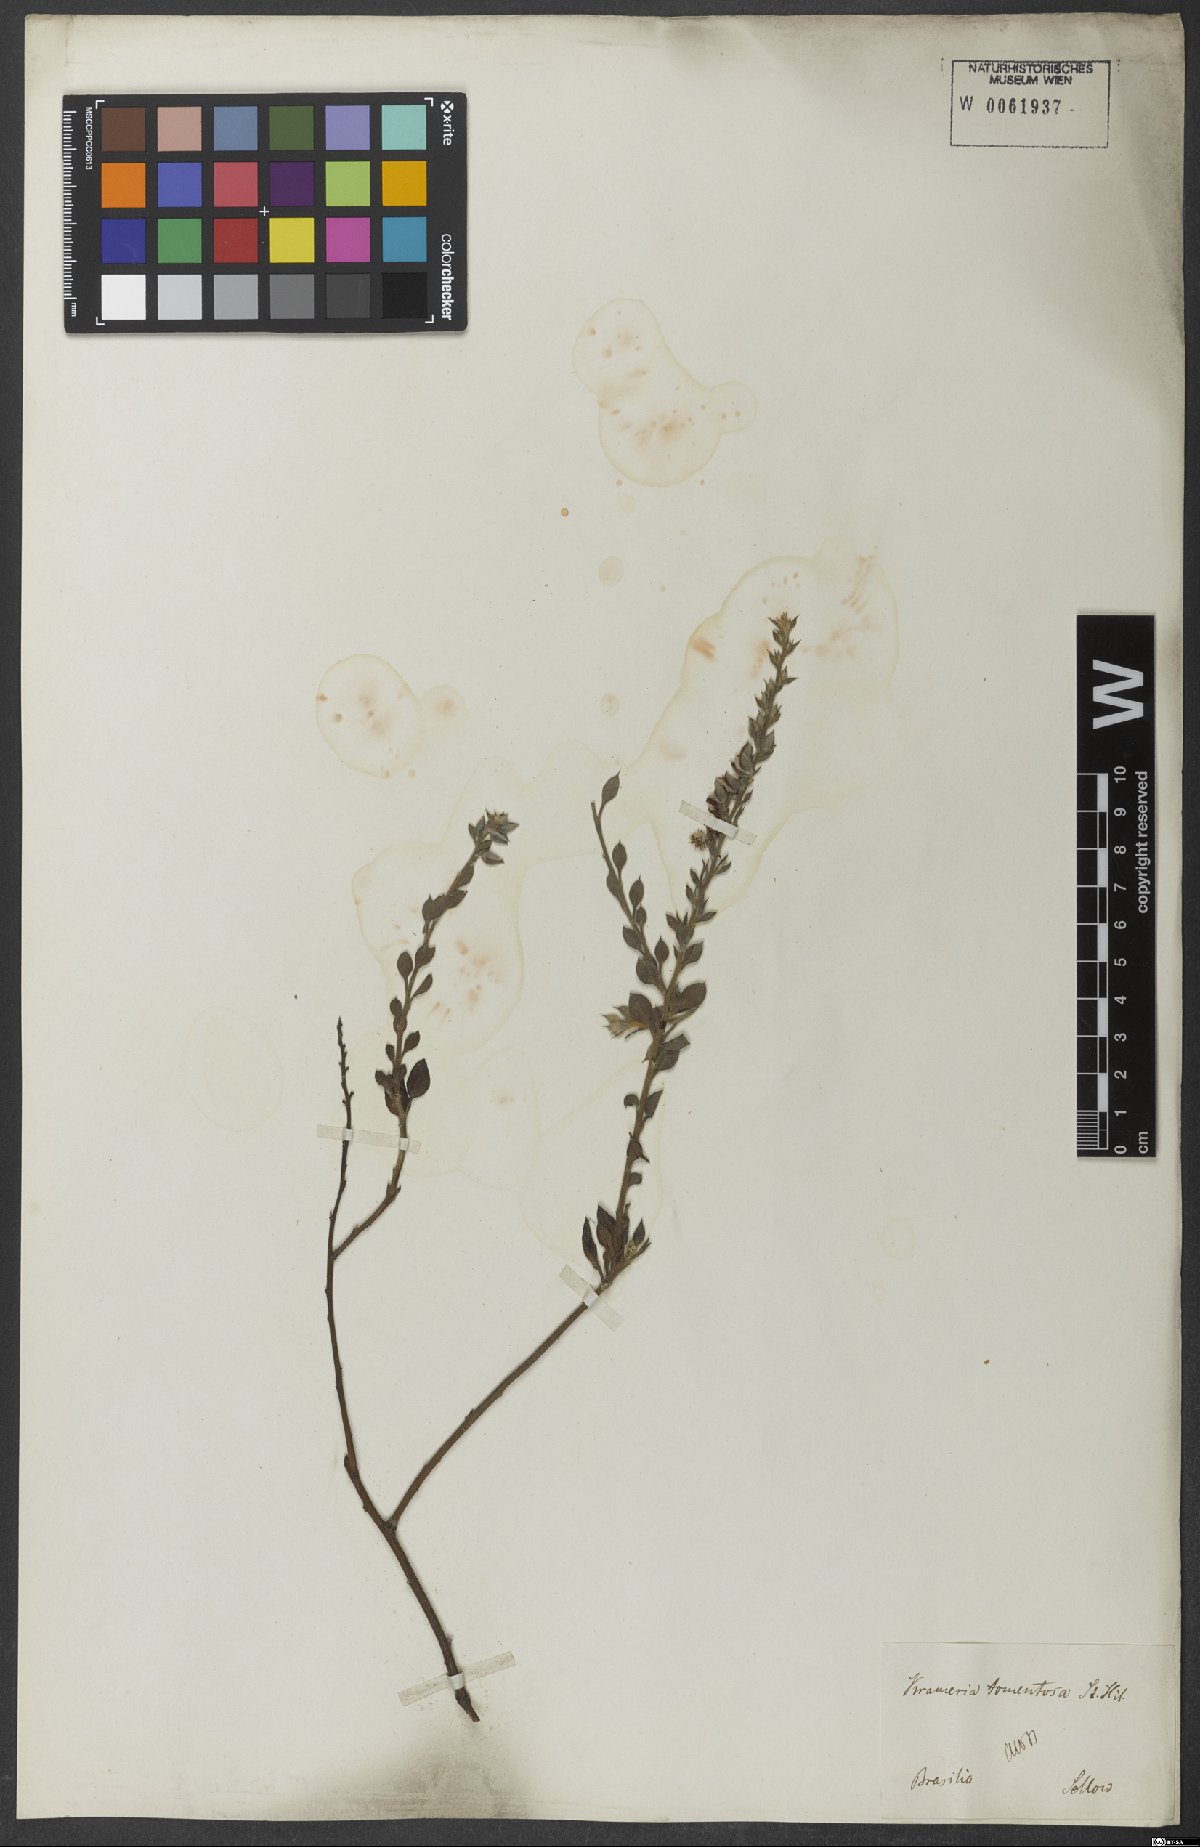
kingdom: Plantae
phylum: Tracheophyta
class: Magnoliopsida
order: Zygophyllales
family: Krameriaceae
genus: Krameria
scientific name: Krameria tomentosa
